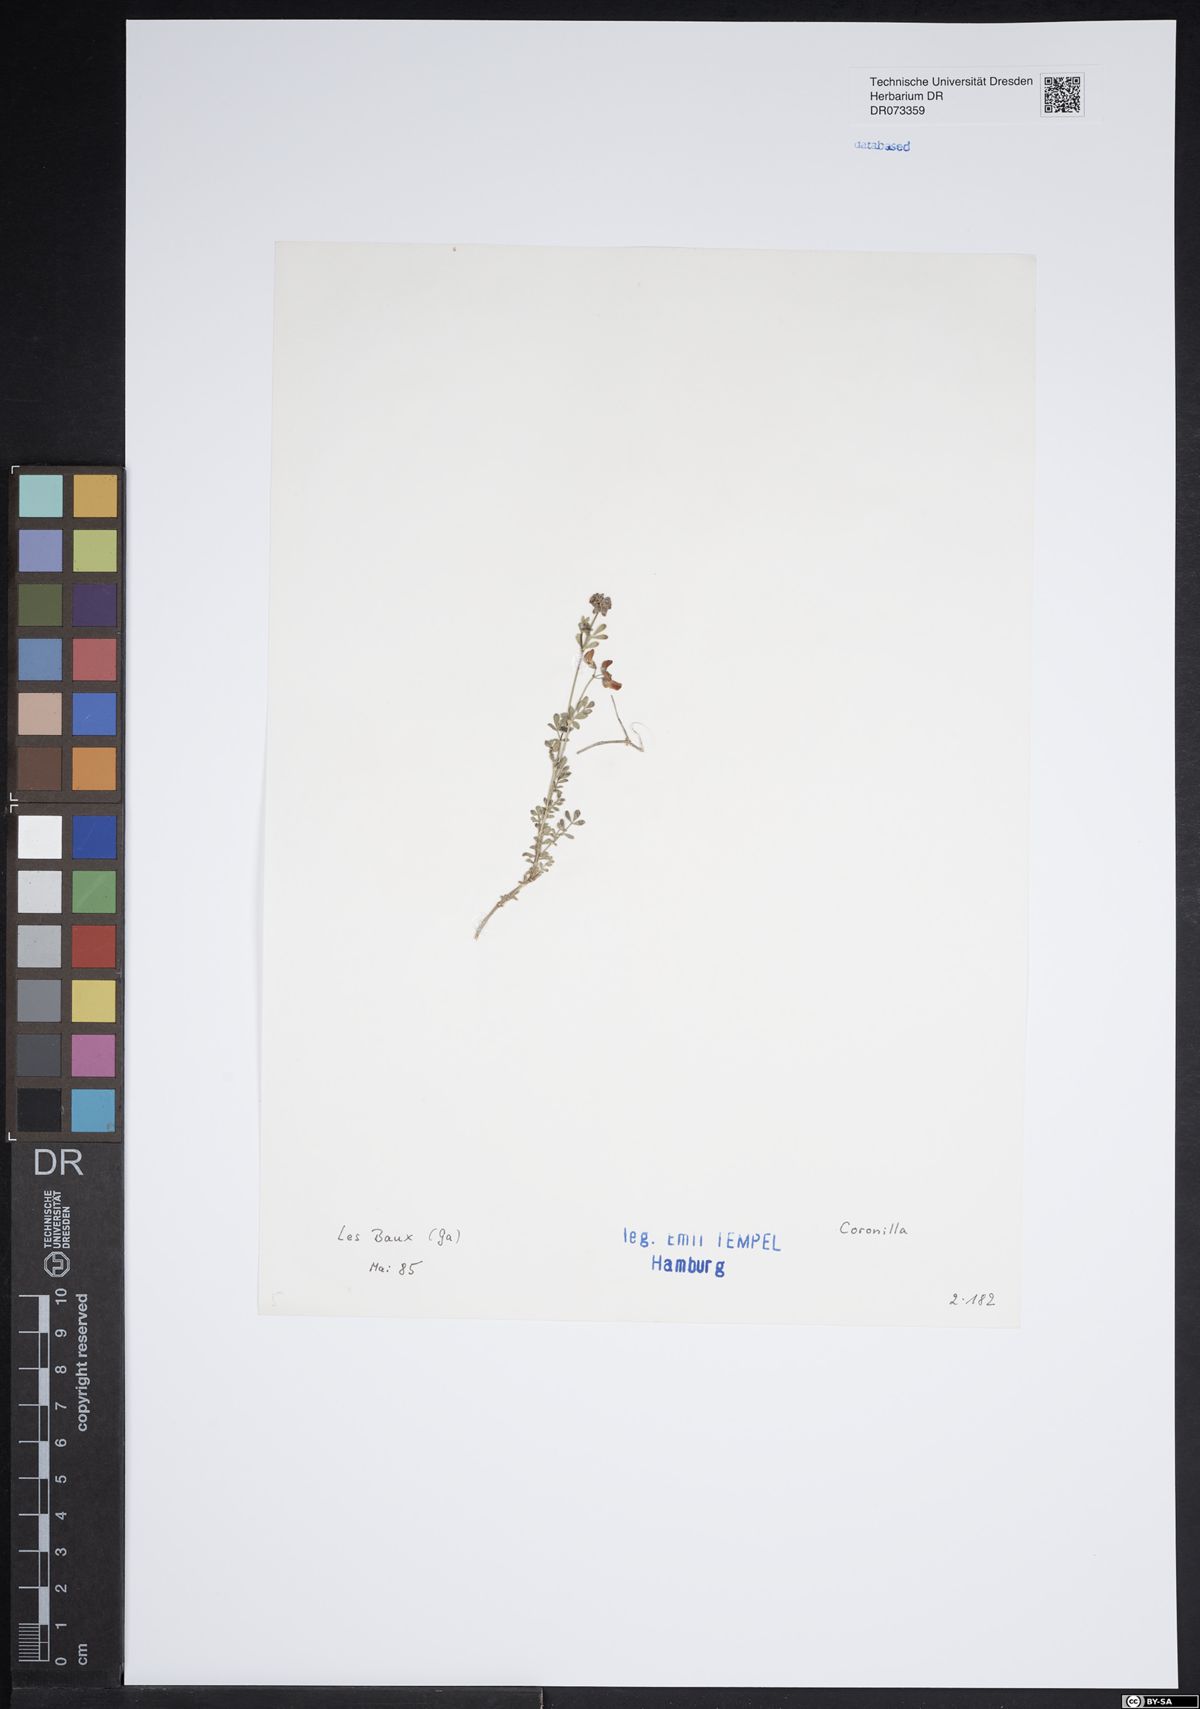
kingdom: Plantae
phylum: Tracheophyta
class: Magnoliopsida
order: Fabales
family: Fabaceae
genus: Coronilla
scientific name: Coronilla
